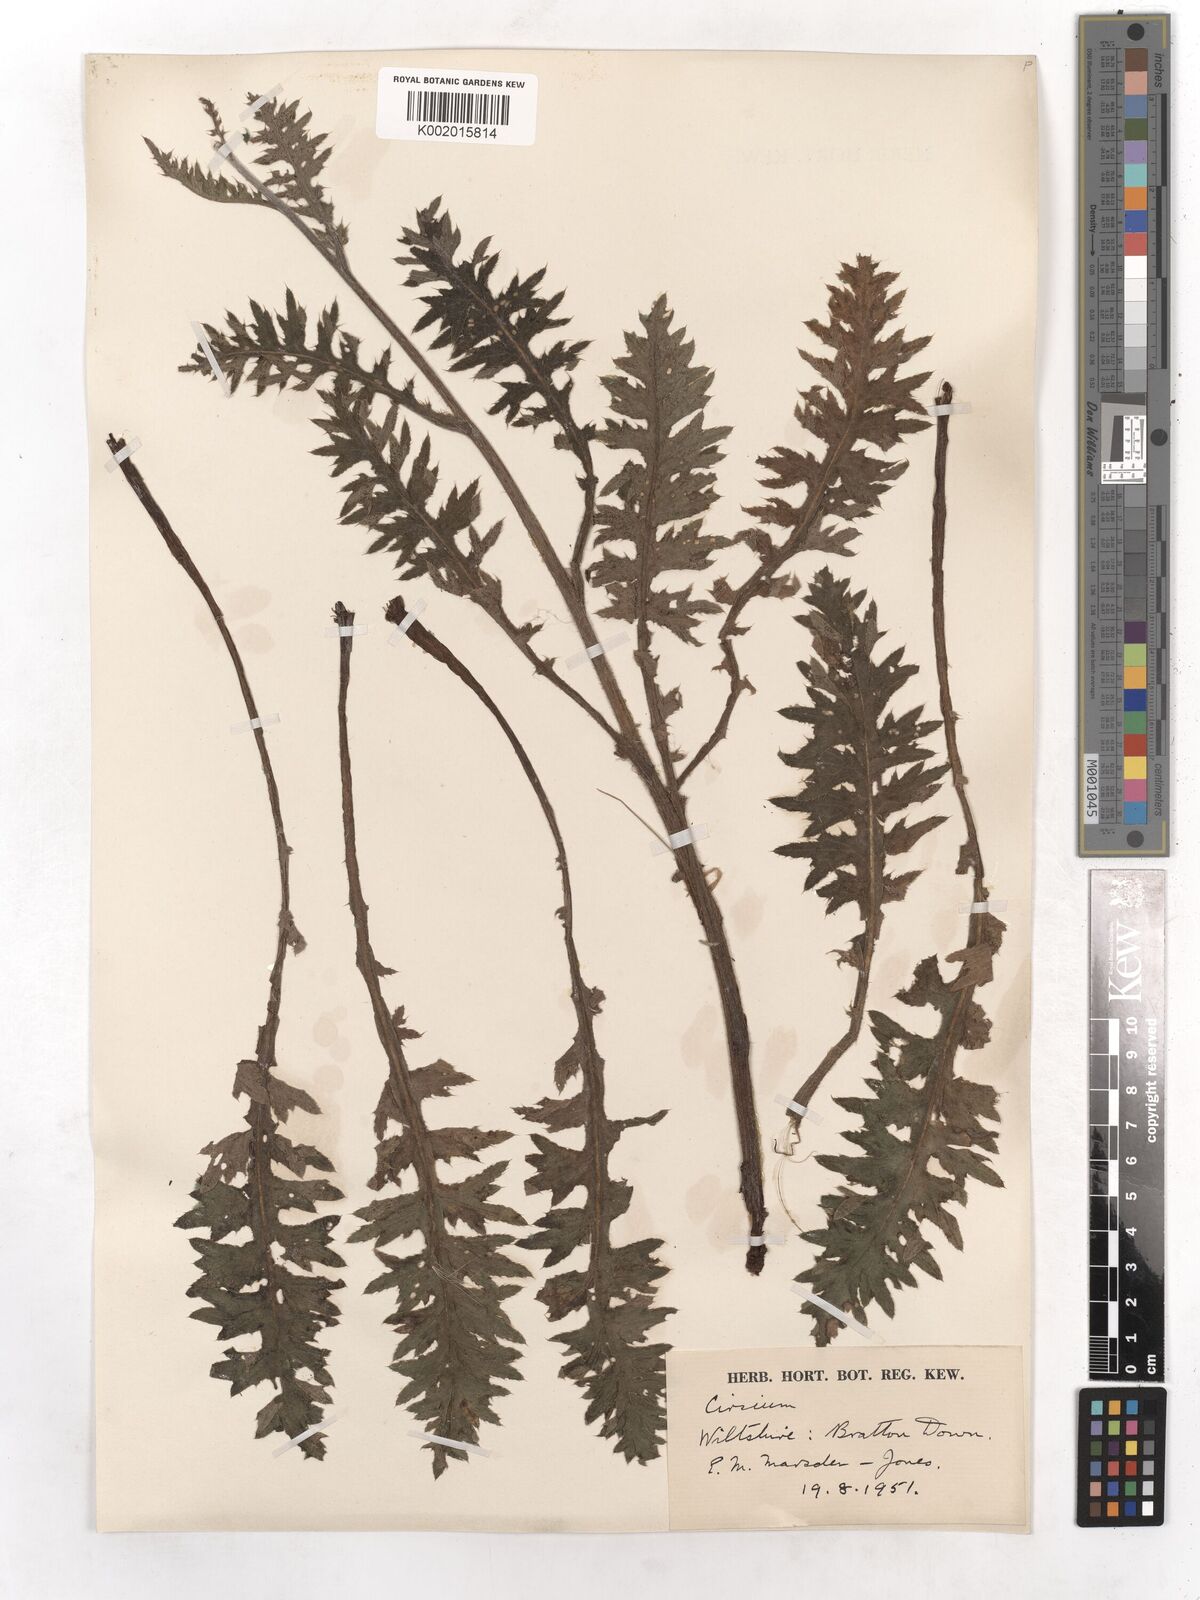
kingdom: Plantae
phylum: Tracheophyta
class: Magnoliopsida
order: Asterales
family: Asteraceae
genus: Cirsium
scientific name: Cirsium
